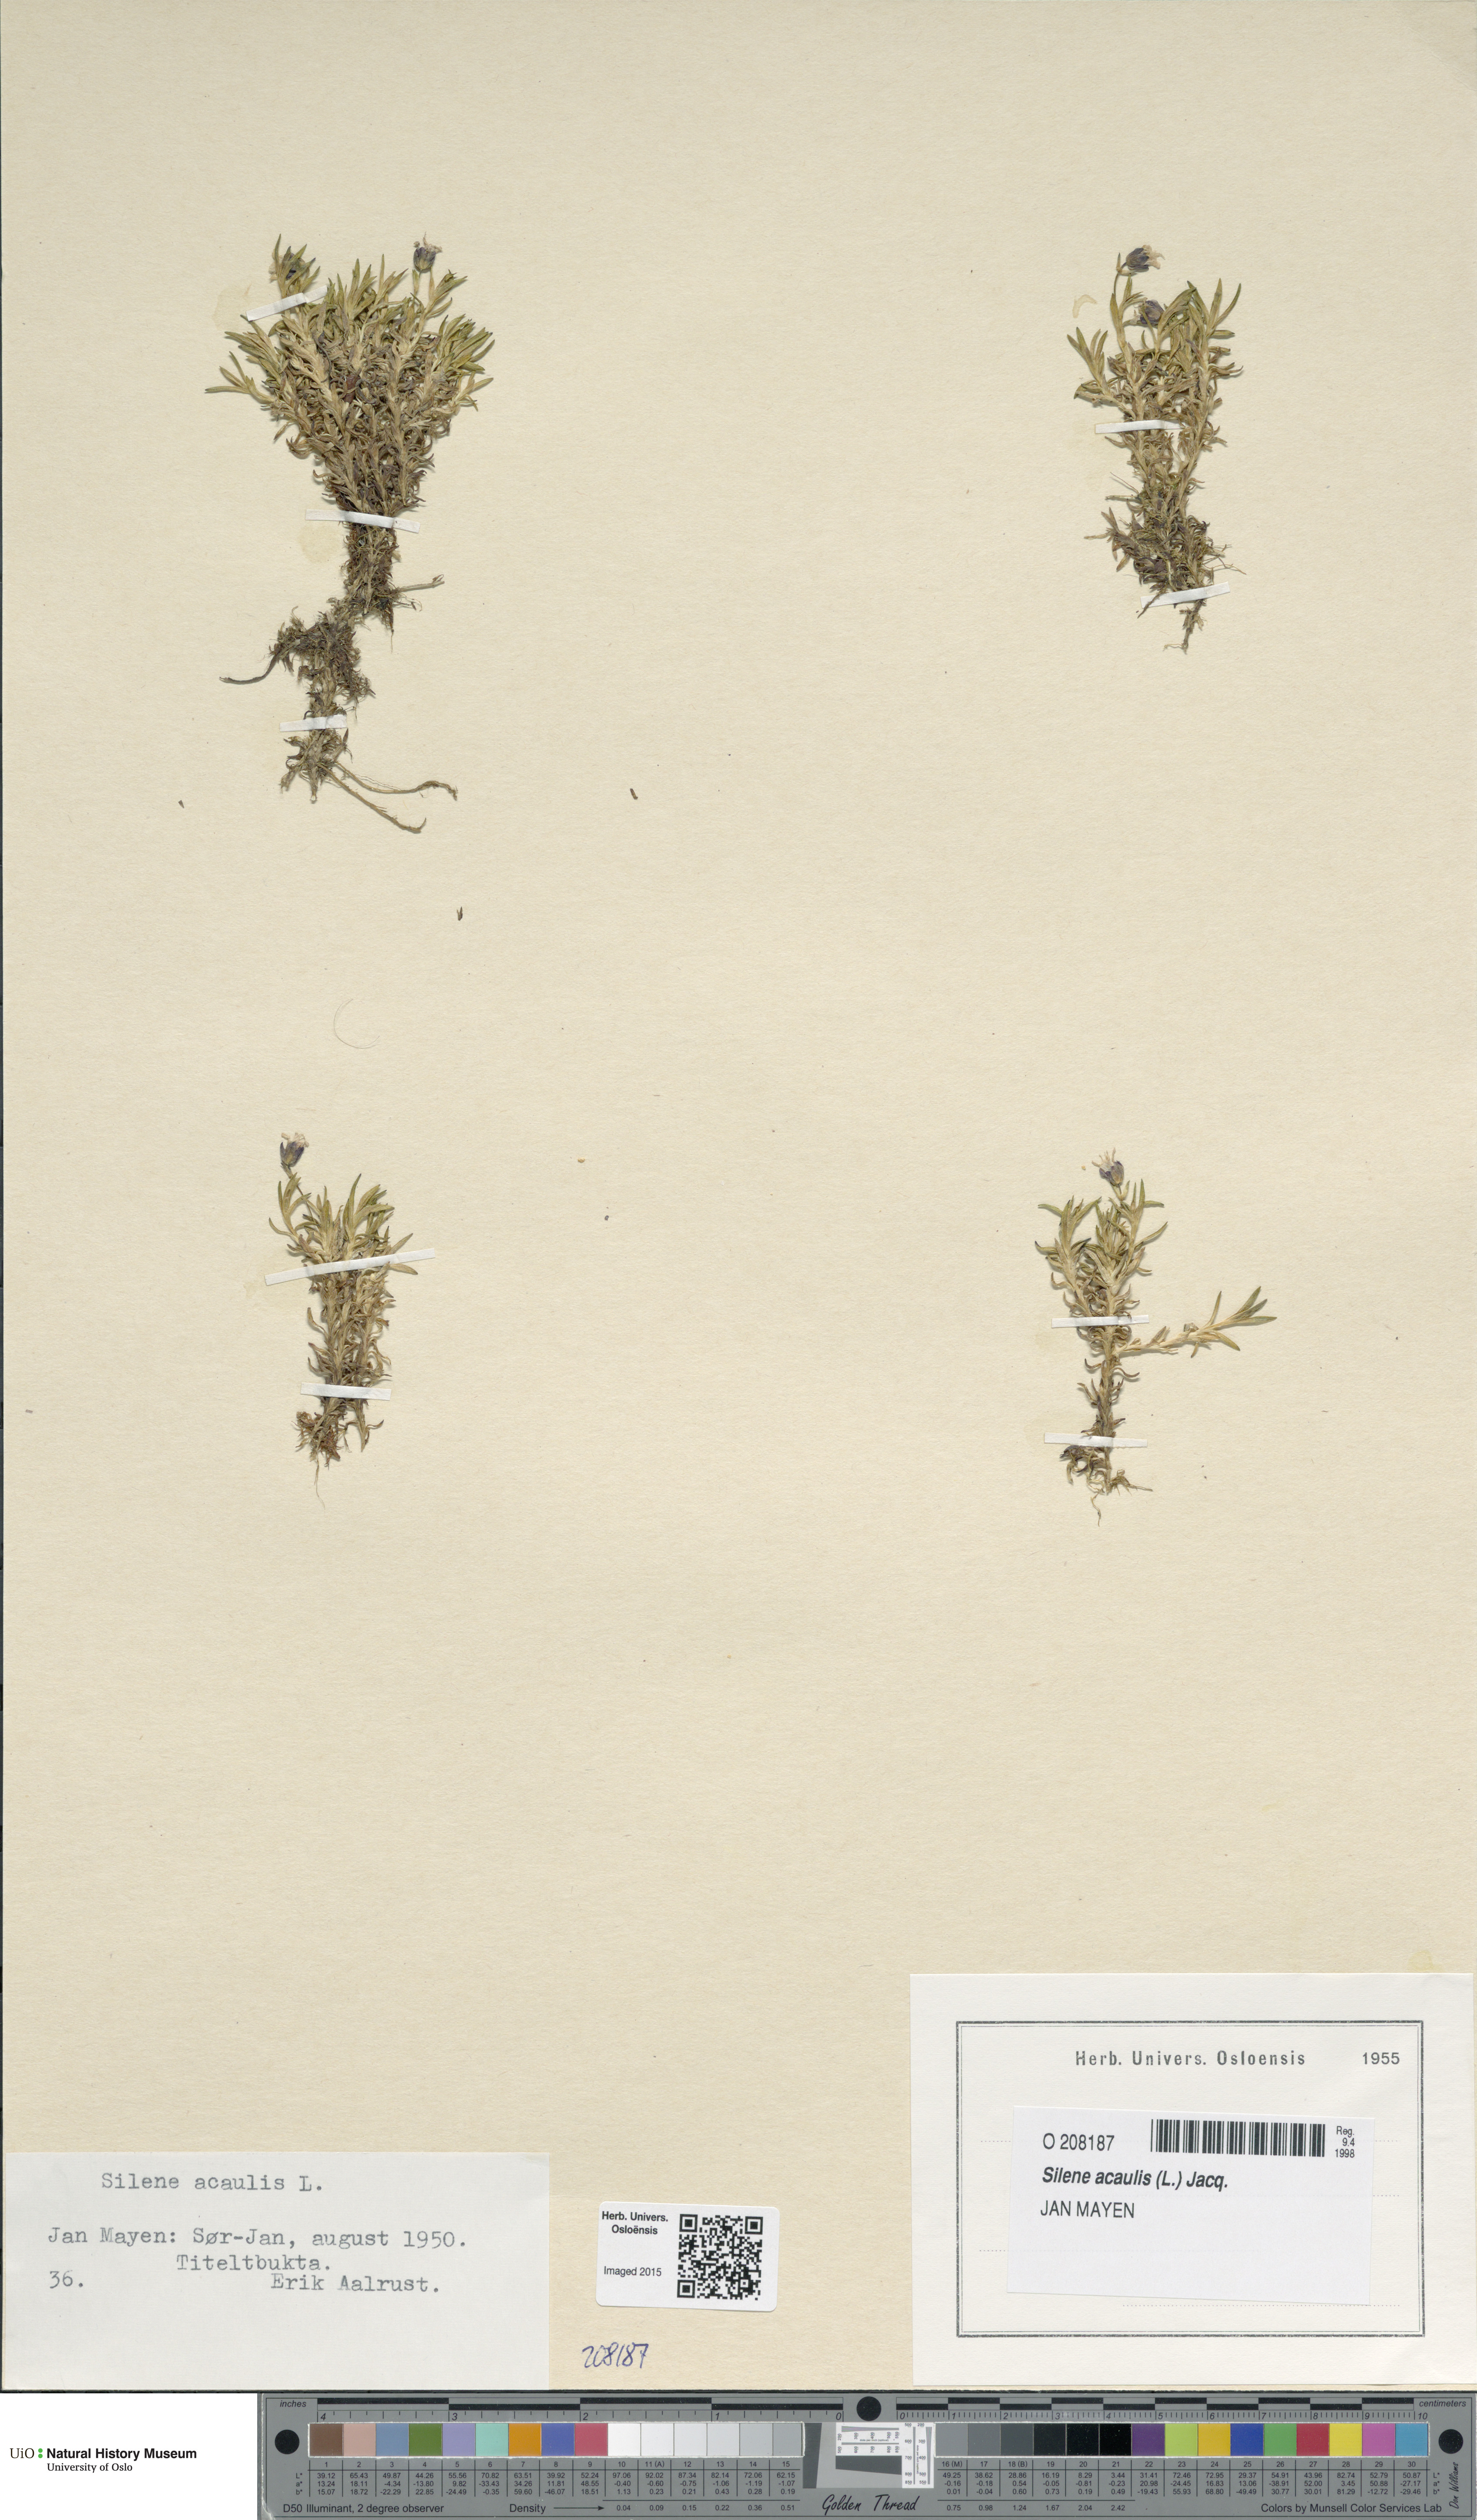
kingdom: Plantae
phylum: Tracheophyta
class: Magnoliopsida
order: Caryophyllales
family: Caryophyllaceae
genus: Silene
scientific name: Silene acaulis
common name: Moss campion
